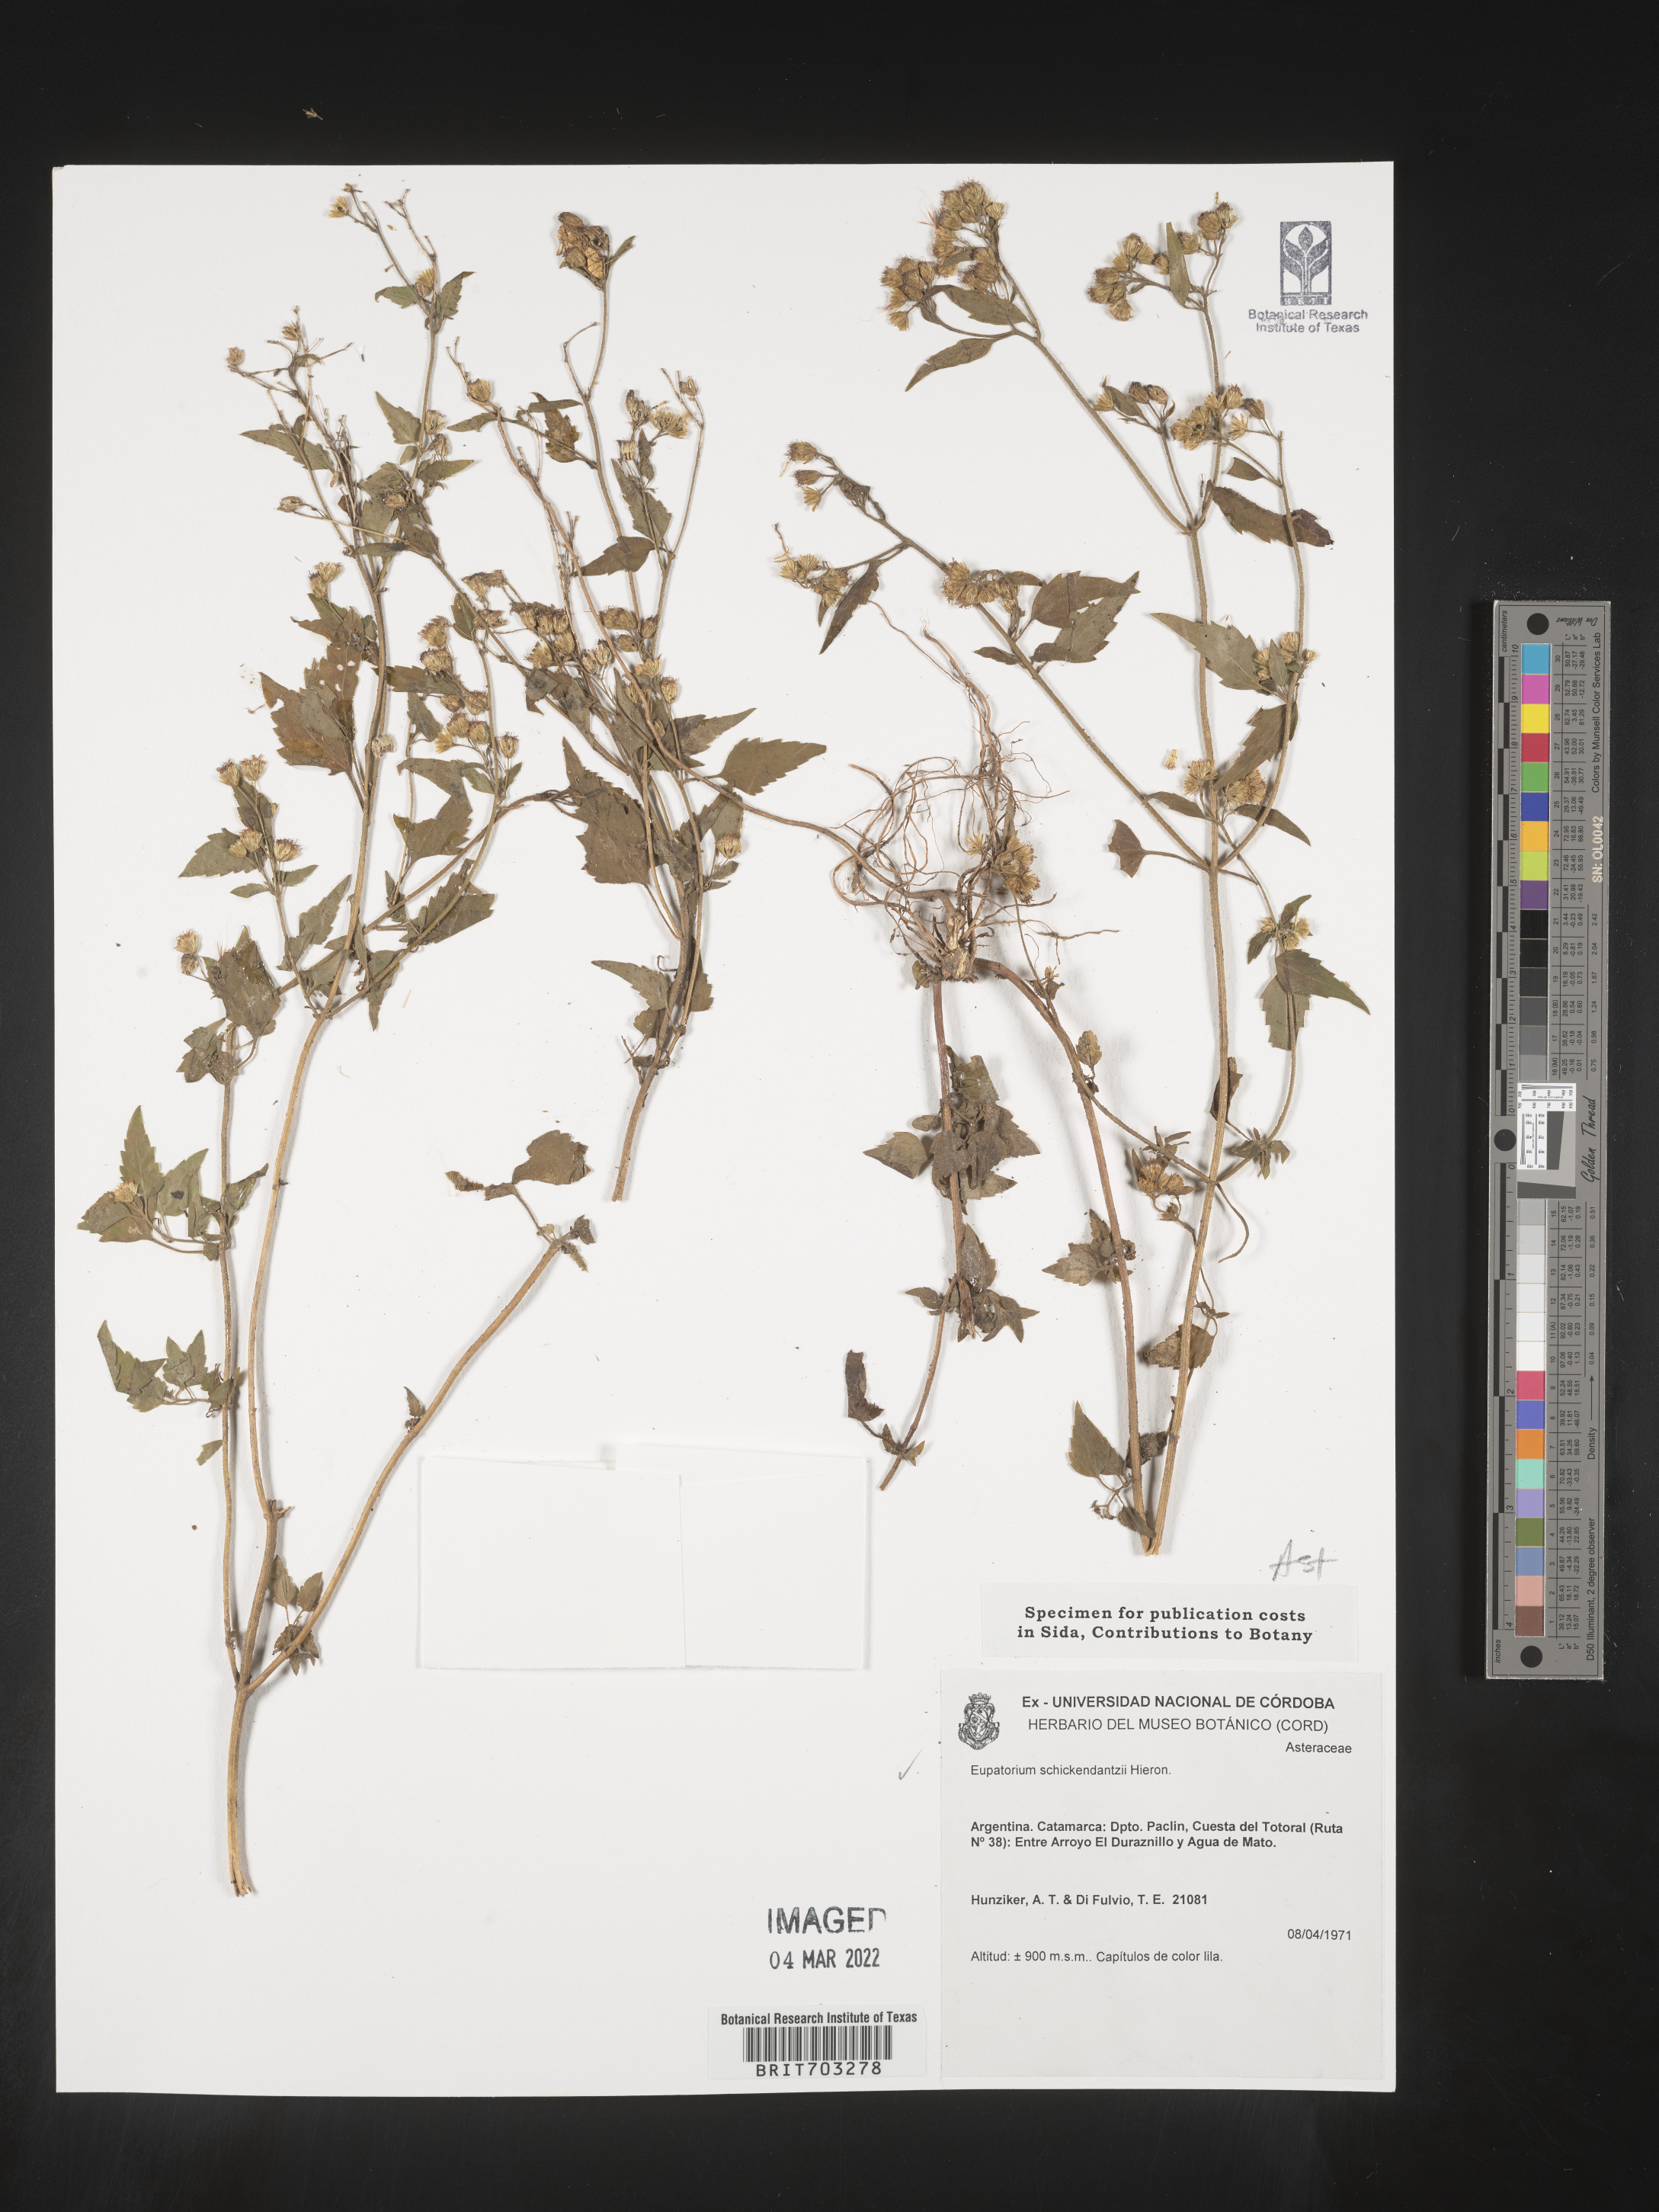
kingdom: Plantae
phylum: Tracheophyta
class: Magnoliopsida
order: Asterales
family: Asteraceae
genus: Eupatorium
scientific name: Eupatorium
